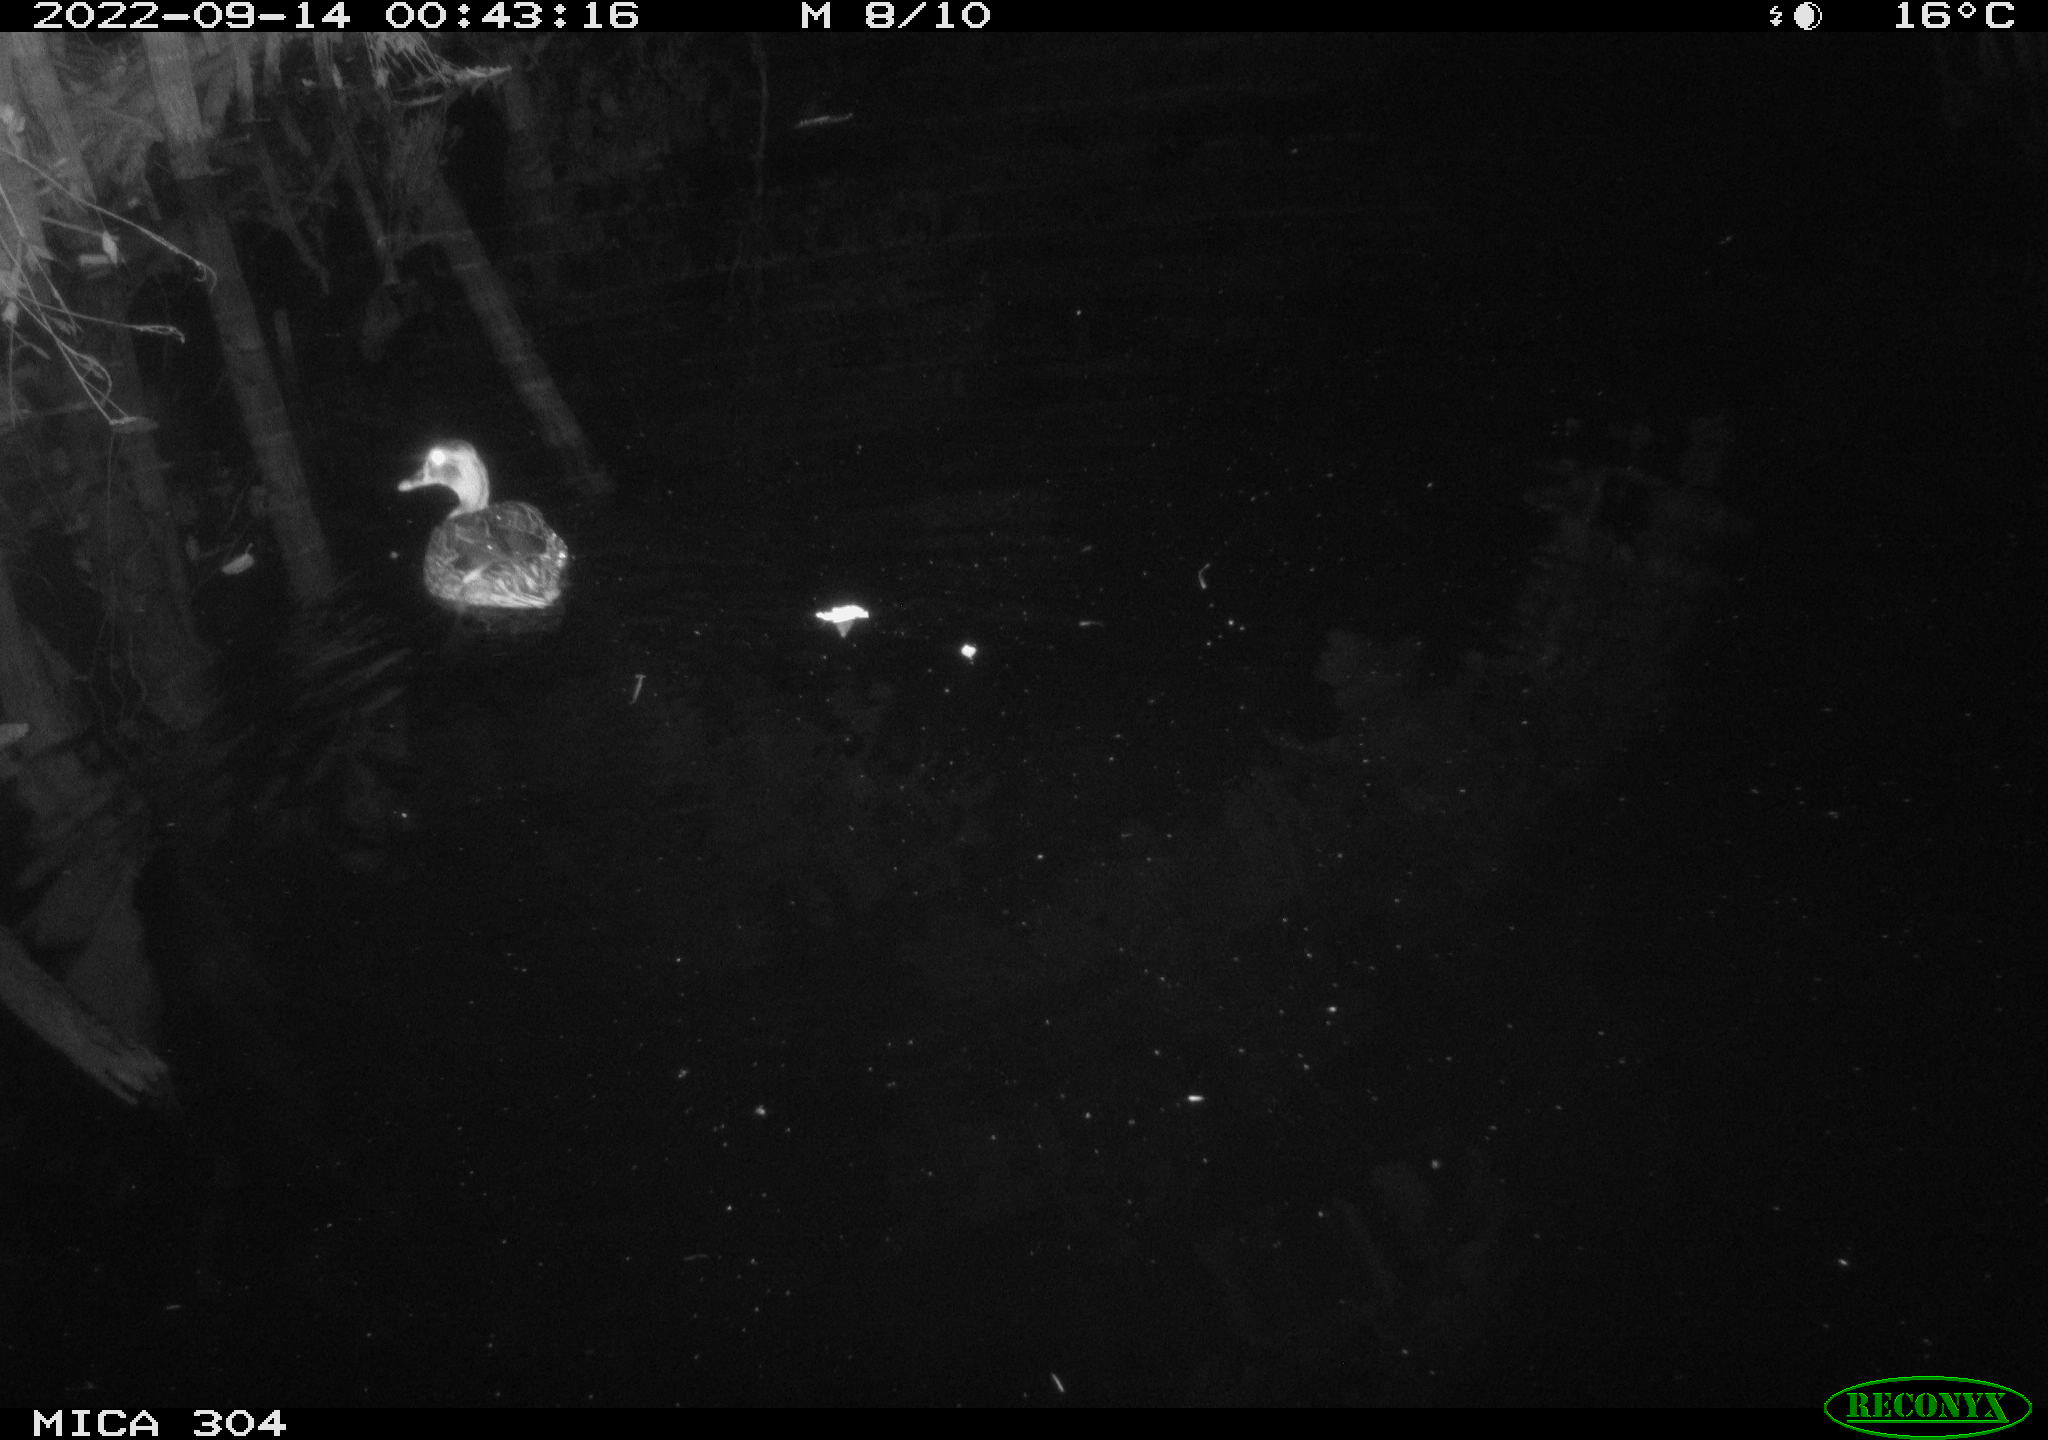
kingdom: Animalia
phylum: Chordata
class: Aves
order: Anseriformes
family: Anatidae
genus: Anas
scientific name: Anas
